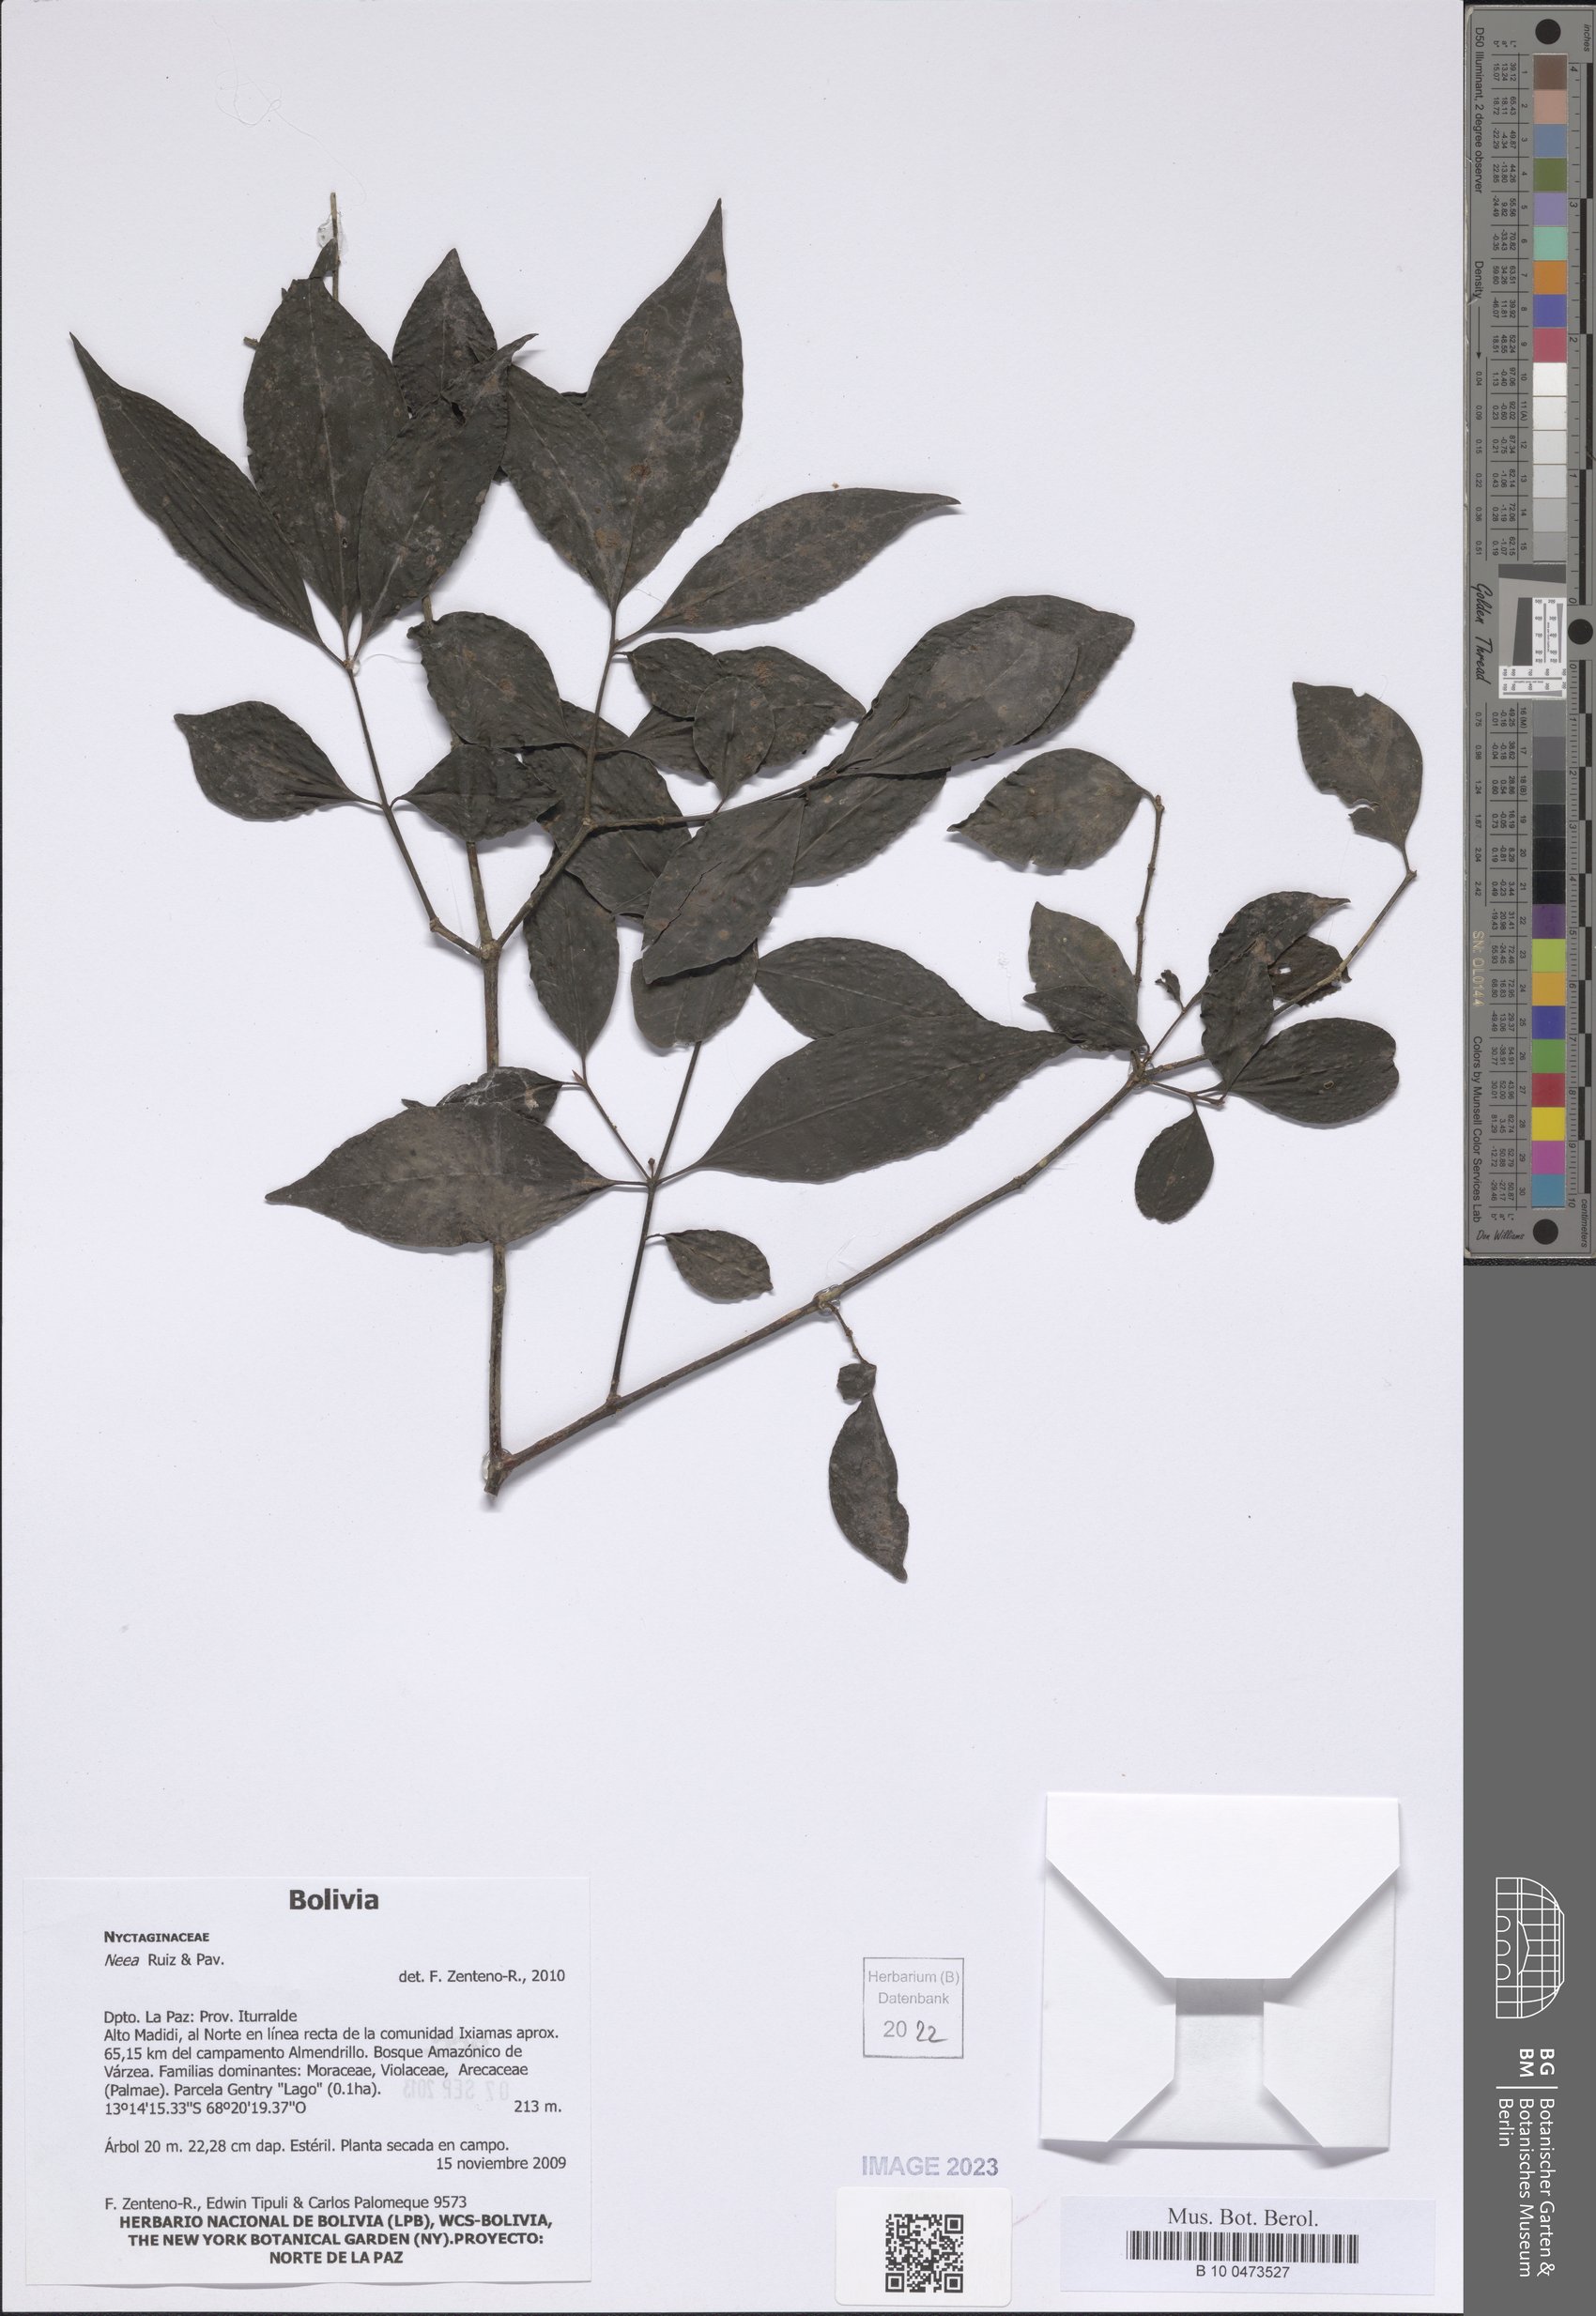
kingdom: Plantae
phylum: Tracheophyta
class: Magnoliopsida
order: Caryophyllales
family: Nyctaginaceae
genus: Neea
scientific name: Neea
